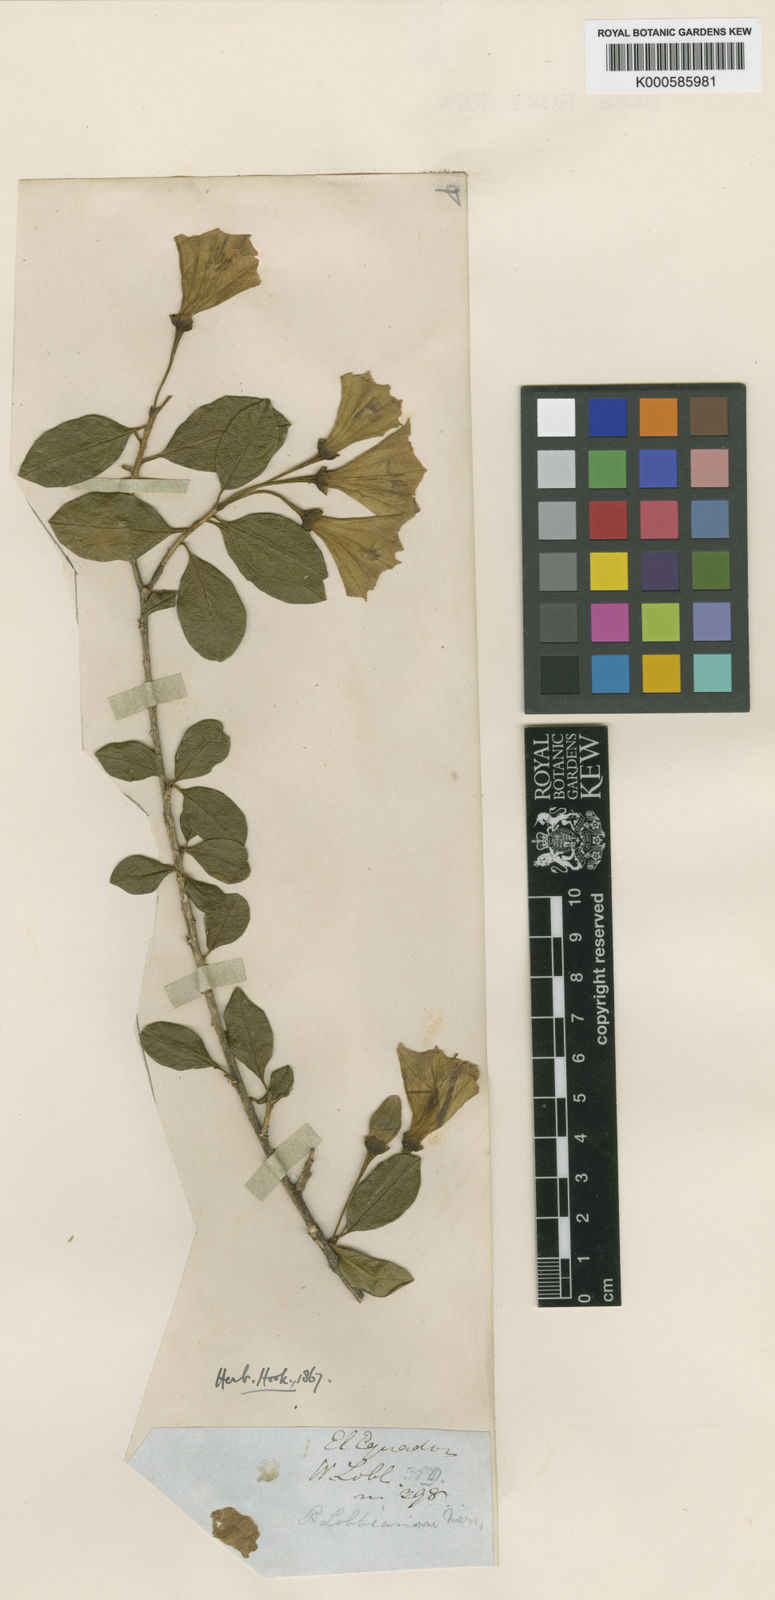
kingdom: Animalia
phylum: Arthropoda
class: Insecta
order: Hemiptera
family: Pentatomidae
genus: Poecilochroma
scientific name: Poecilochroma
